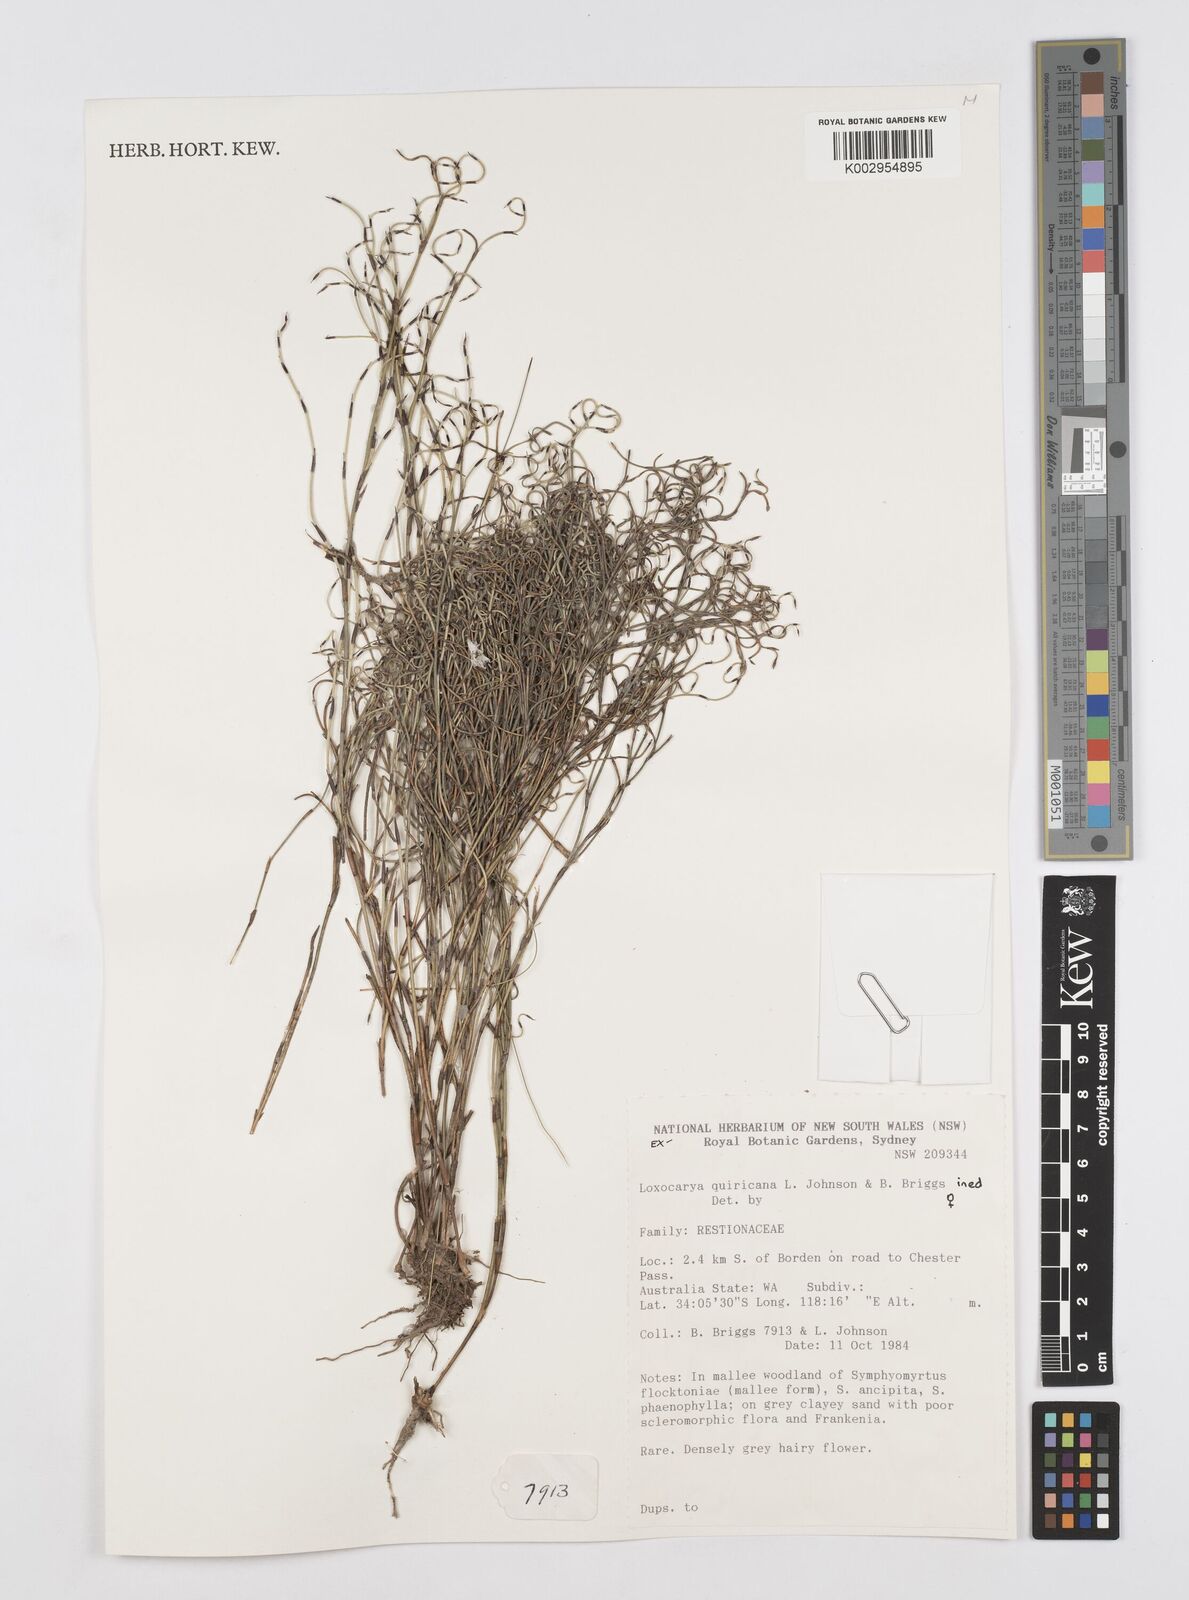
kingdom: Plantae
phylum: Tracheophyta
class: Liliopsida
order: Poales
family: Restionaceae
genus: Desmocladus
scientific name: Desmocladus quiricanus
